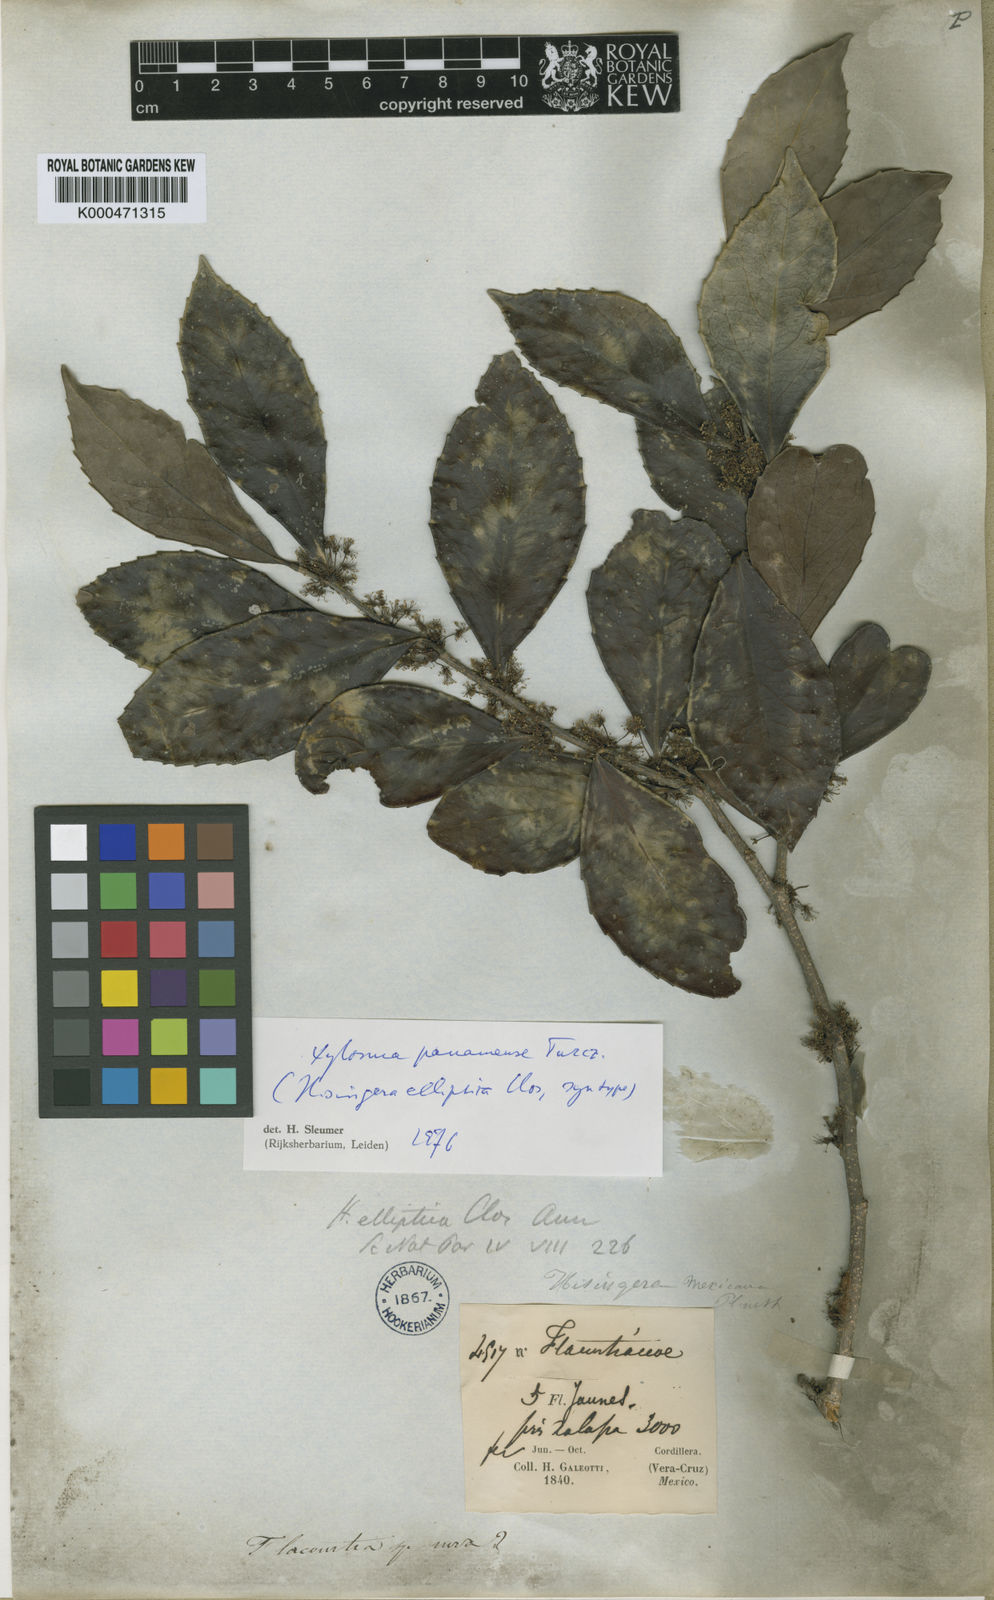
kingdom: Plantae
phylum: Tracheophyta
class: Magnoliopsida
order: Malpighiales
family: Salicaceae
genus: Xylosma
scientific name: Xylosma panamensis
